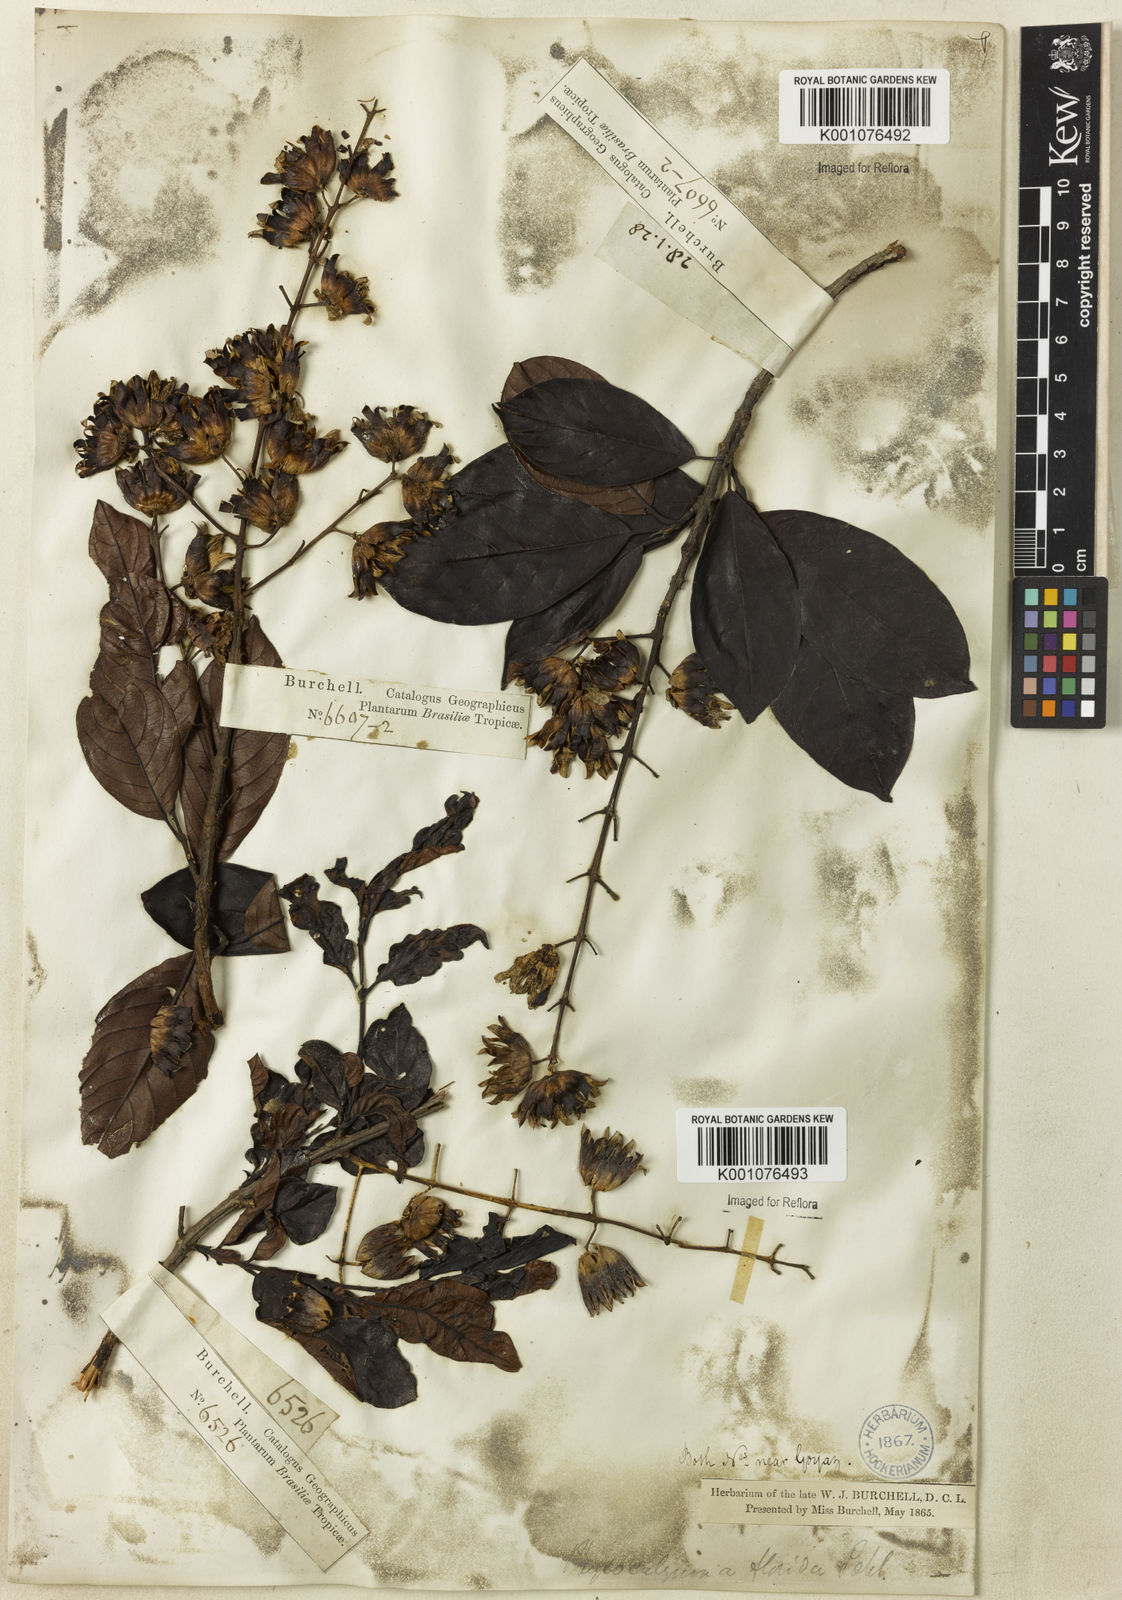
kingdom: Plantae
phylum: Tracheophyta
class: Magnoliopsida
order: Myrtales
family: Lythraceae
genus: Physocalymma
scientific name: Physocalymma scaberrimum
